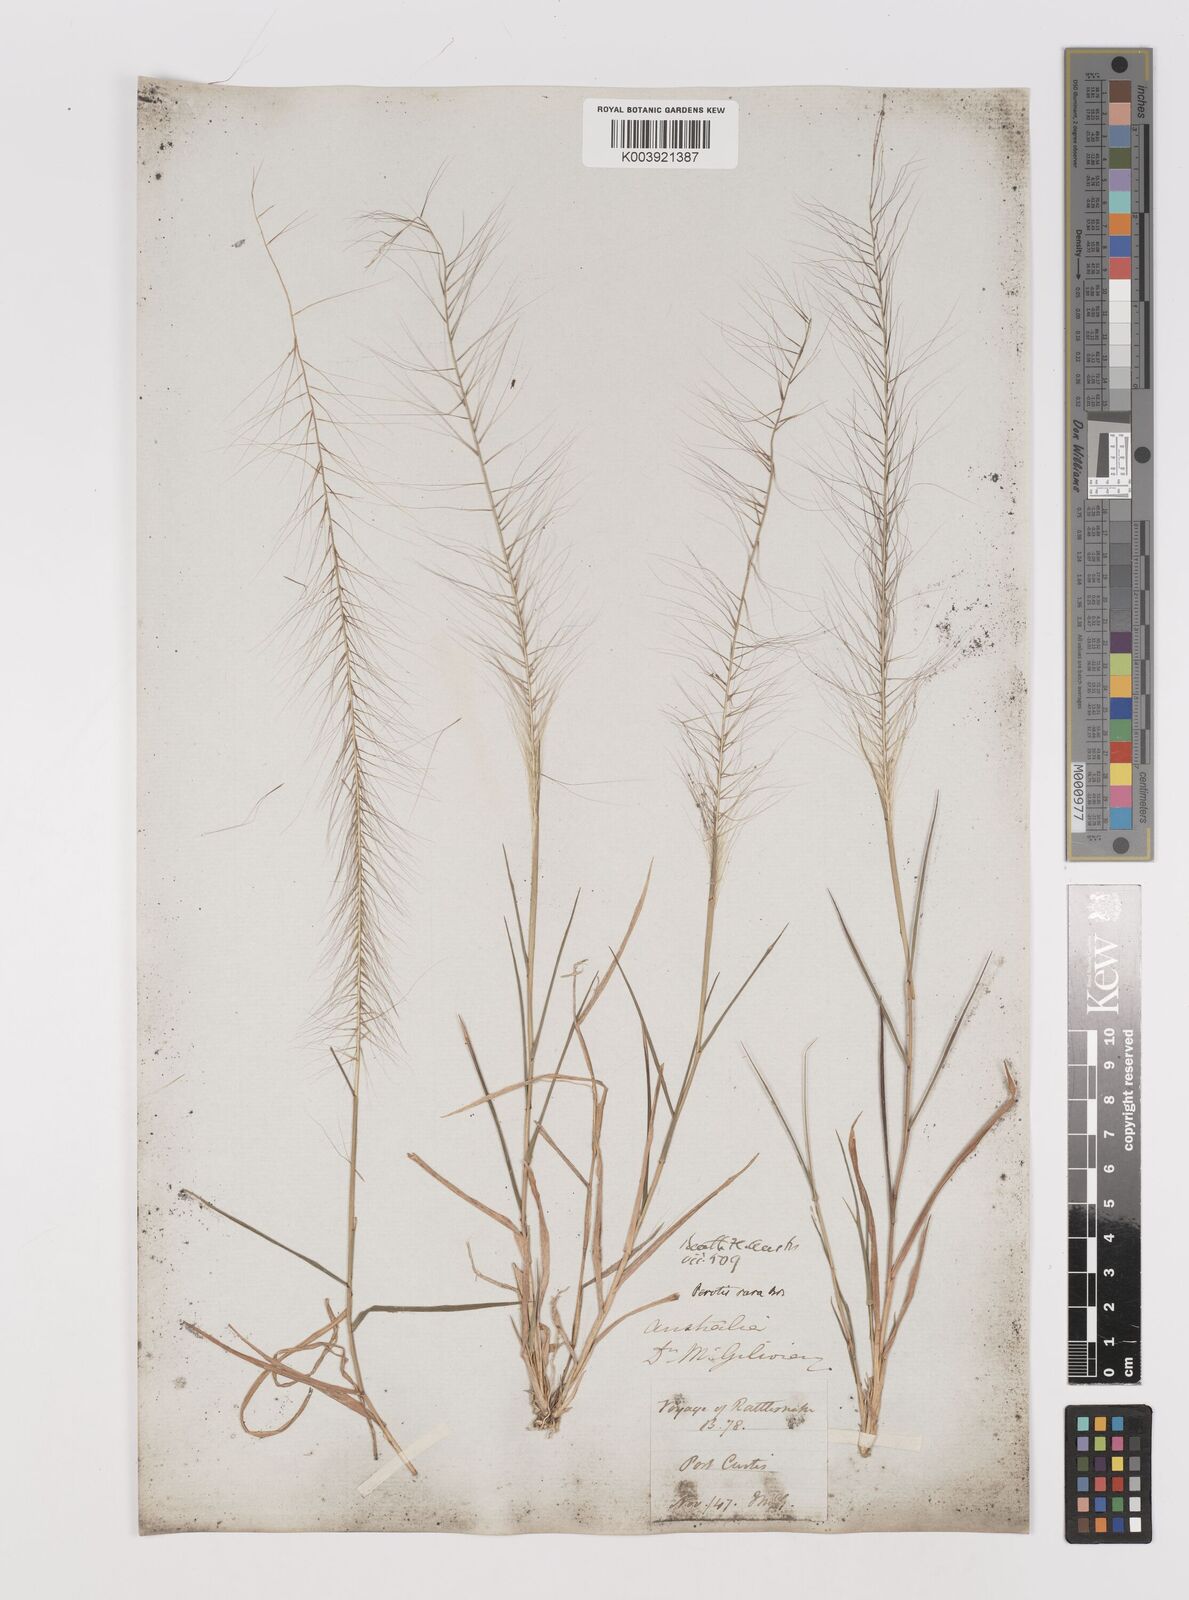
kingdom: Plantae
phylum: Tracheophyta
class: Liliopsida
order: Poales
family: Poaceae
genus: Perotis
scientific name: Perotis rara
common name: Comet grass
